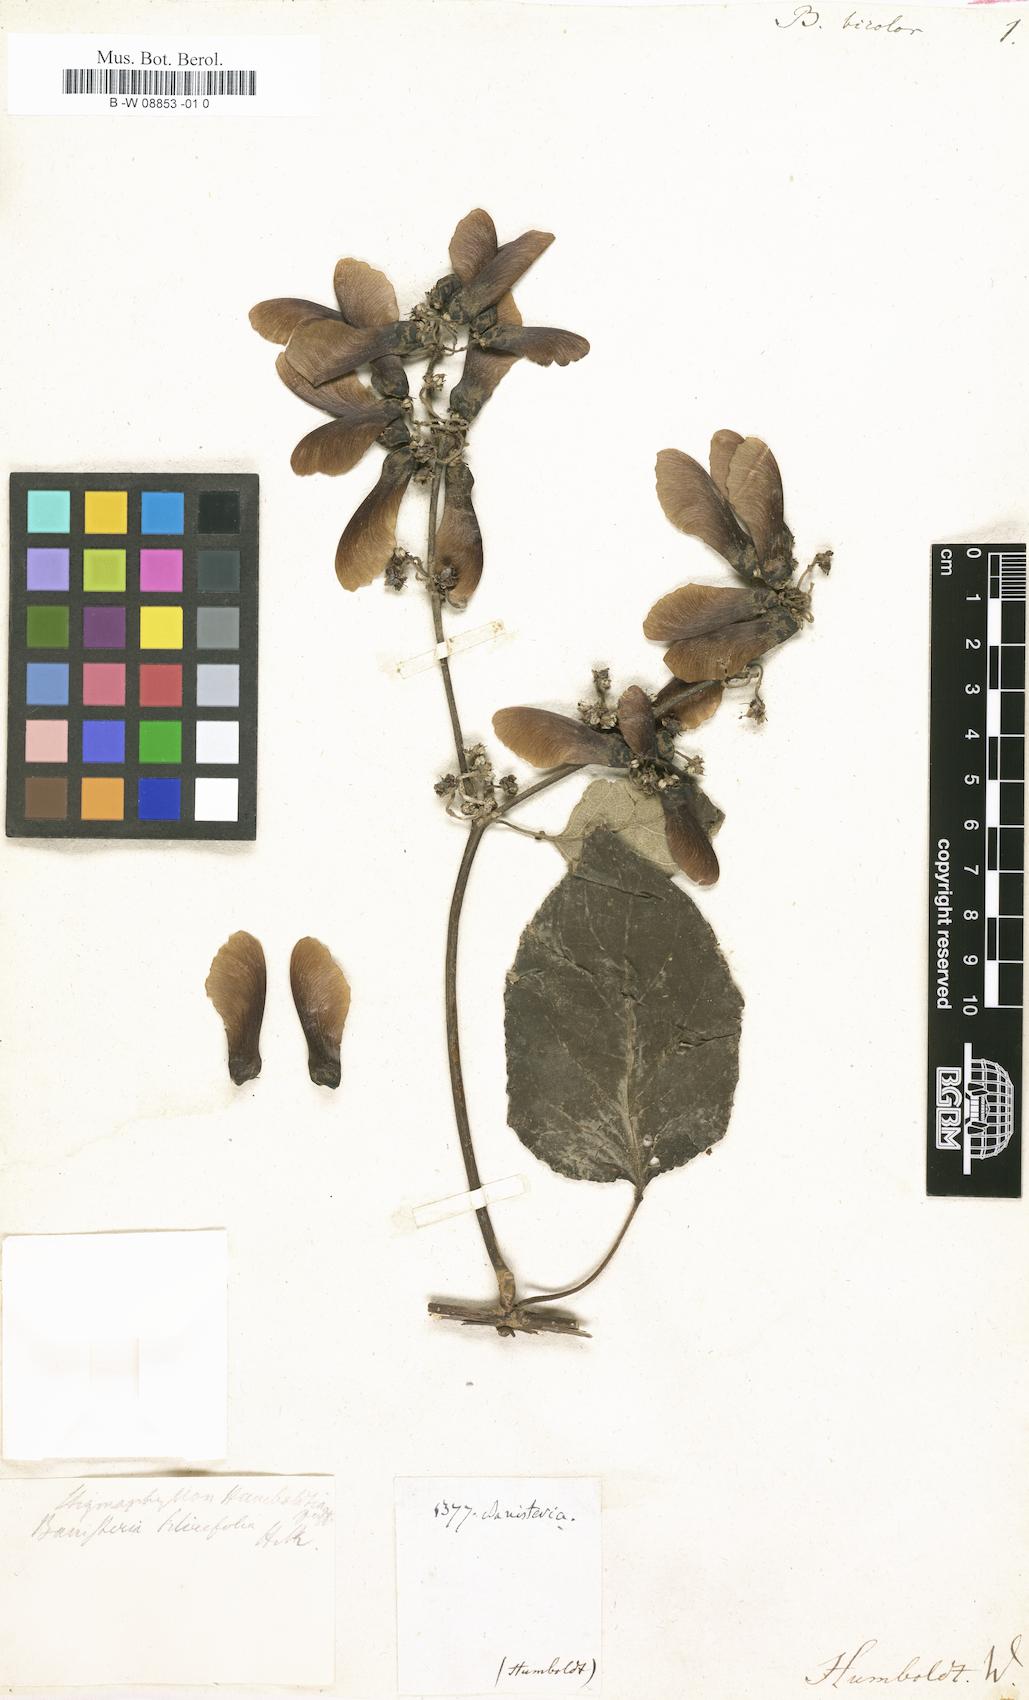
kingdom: Plantae
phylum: Tracheophyta
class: Magnoliopsida
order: Malpighiales
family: Malpighiaceae
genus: Banisteriopsis
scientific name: Banisteriopsis muricata
